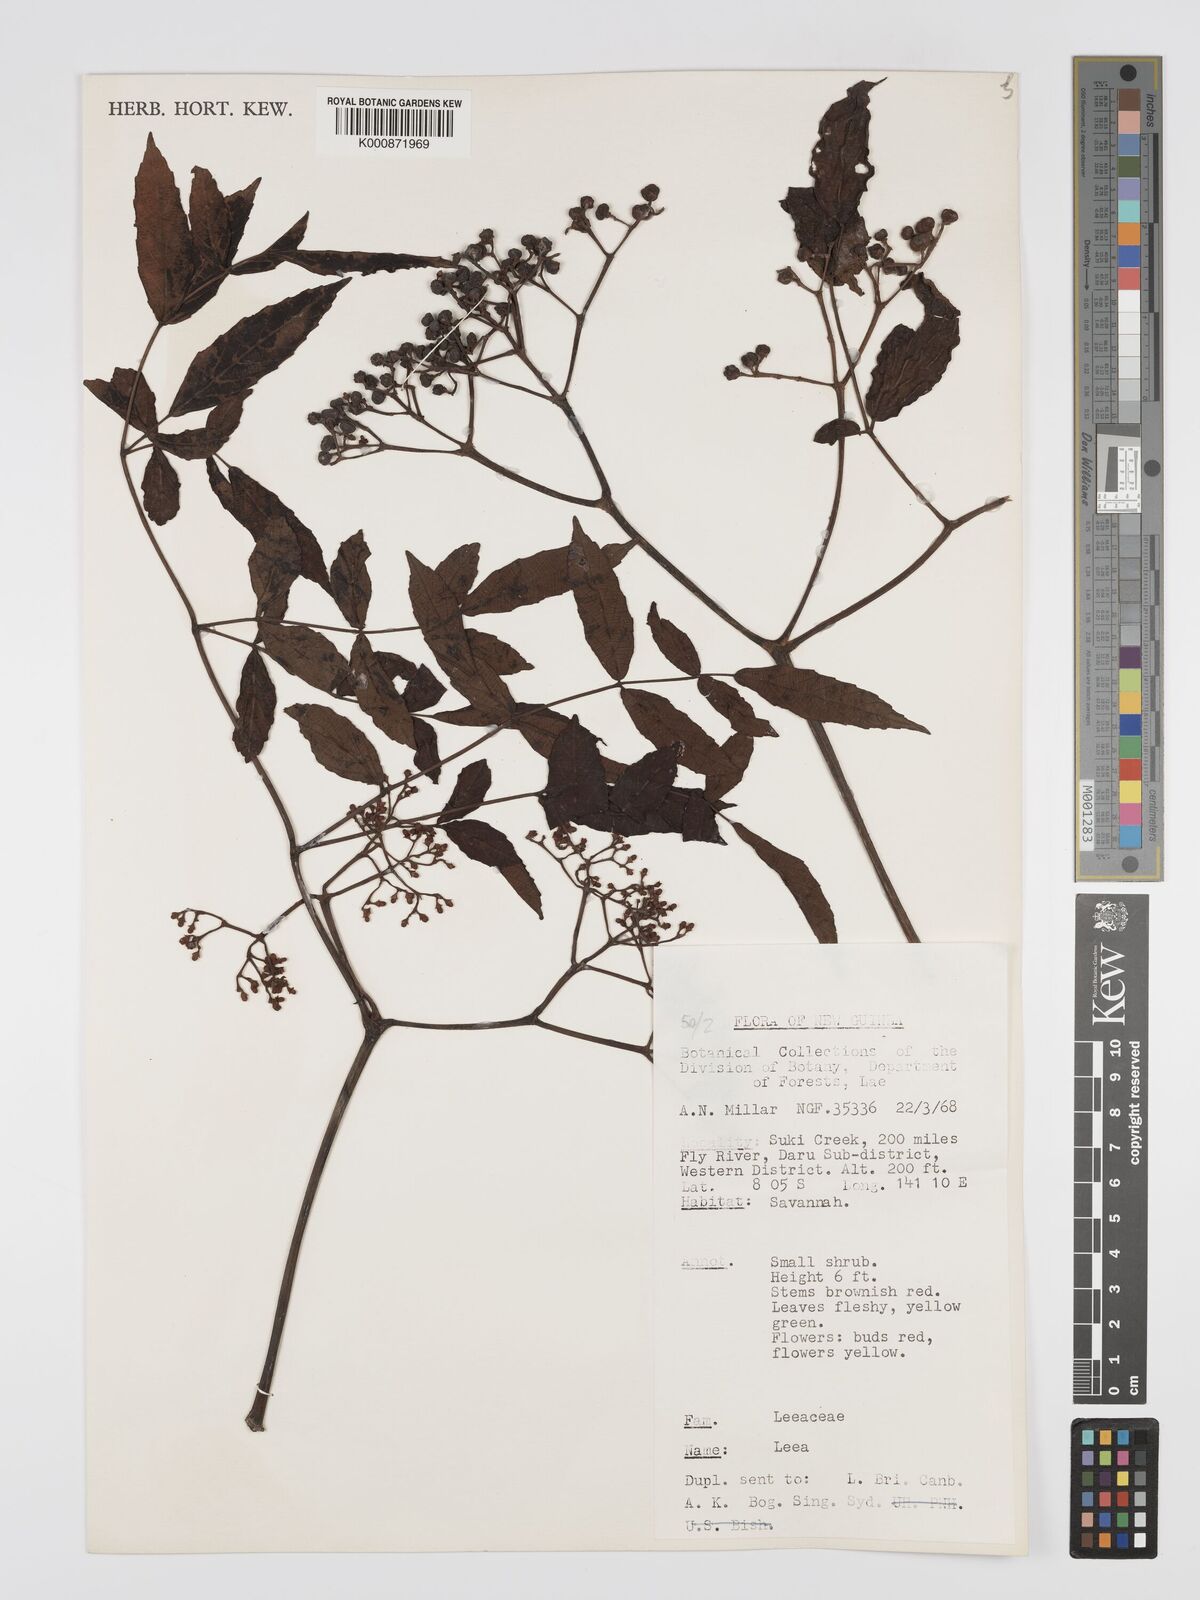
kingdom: Plantae
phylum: Tracheophyta
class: Magnoliopsida
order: Vitales
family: Vitaceae
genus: Leea
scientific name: Leea
